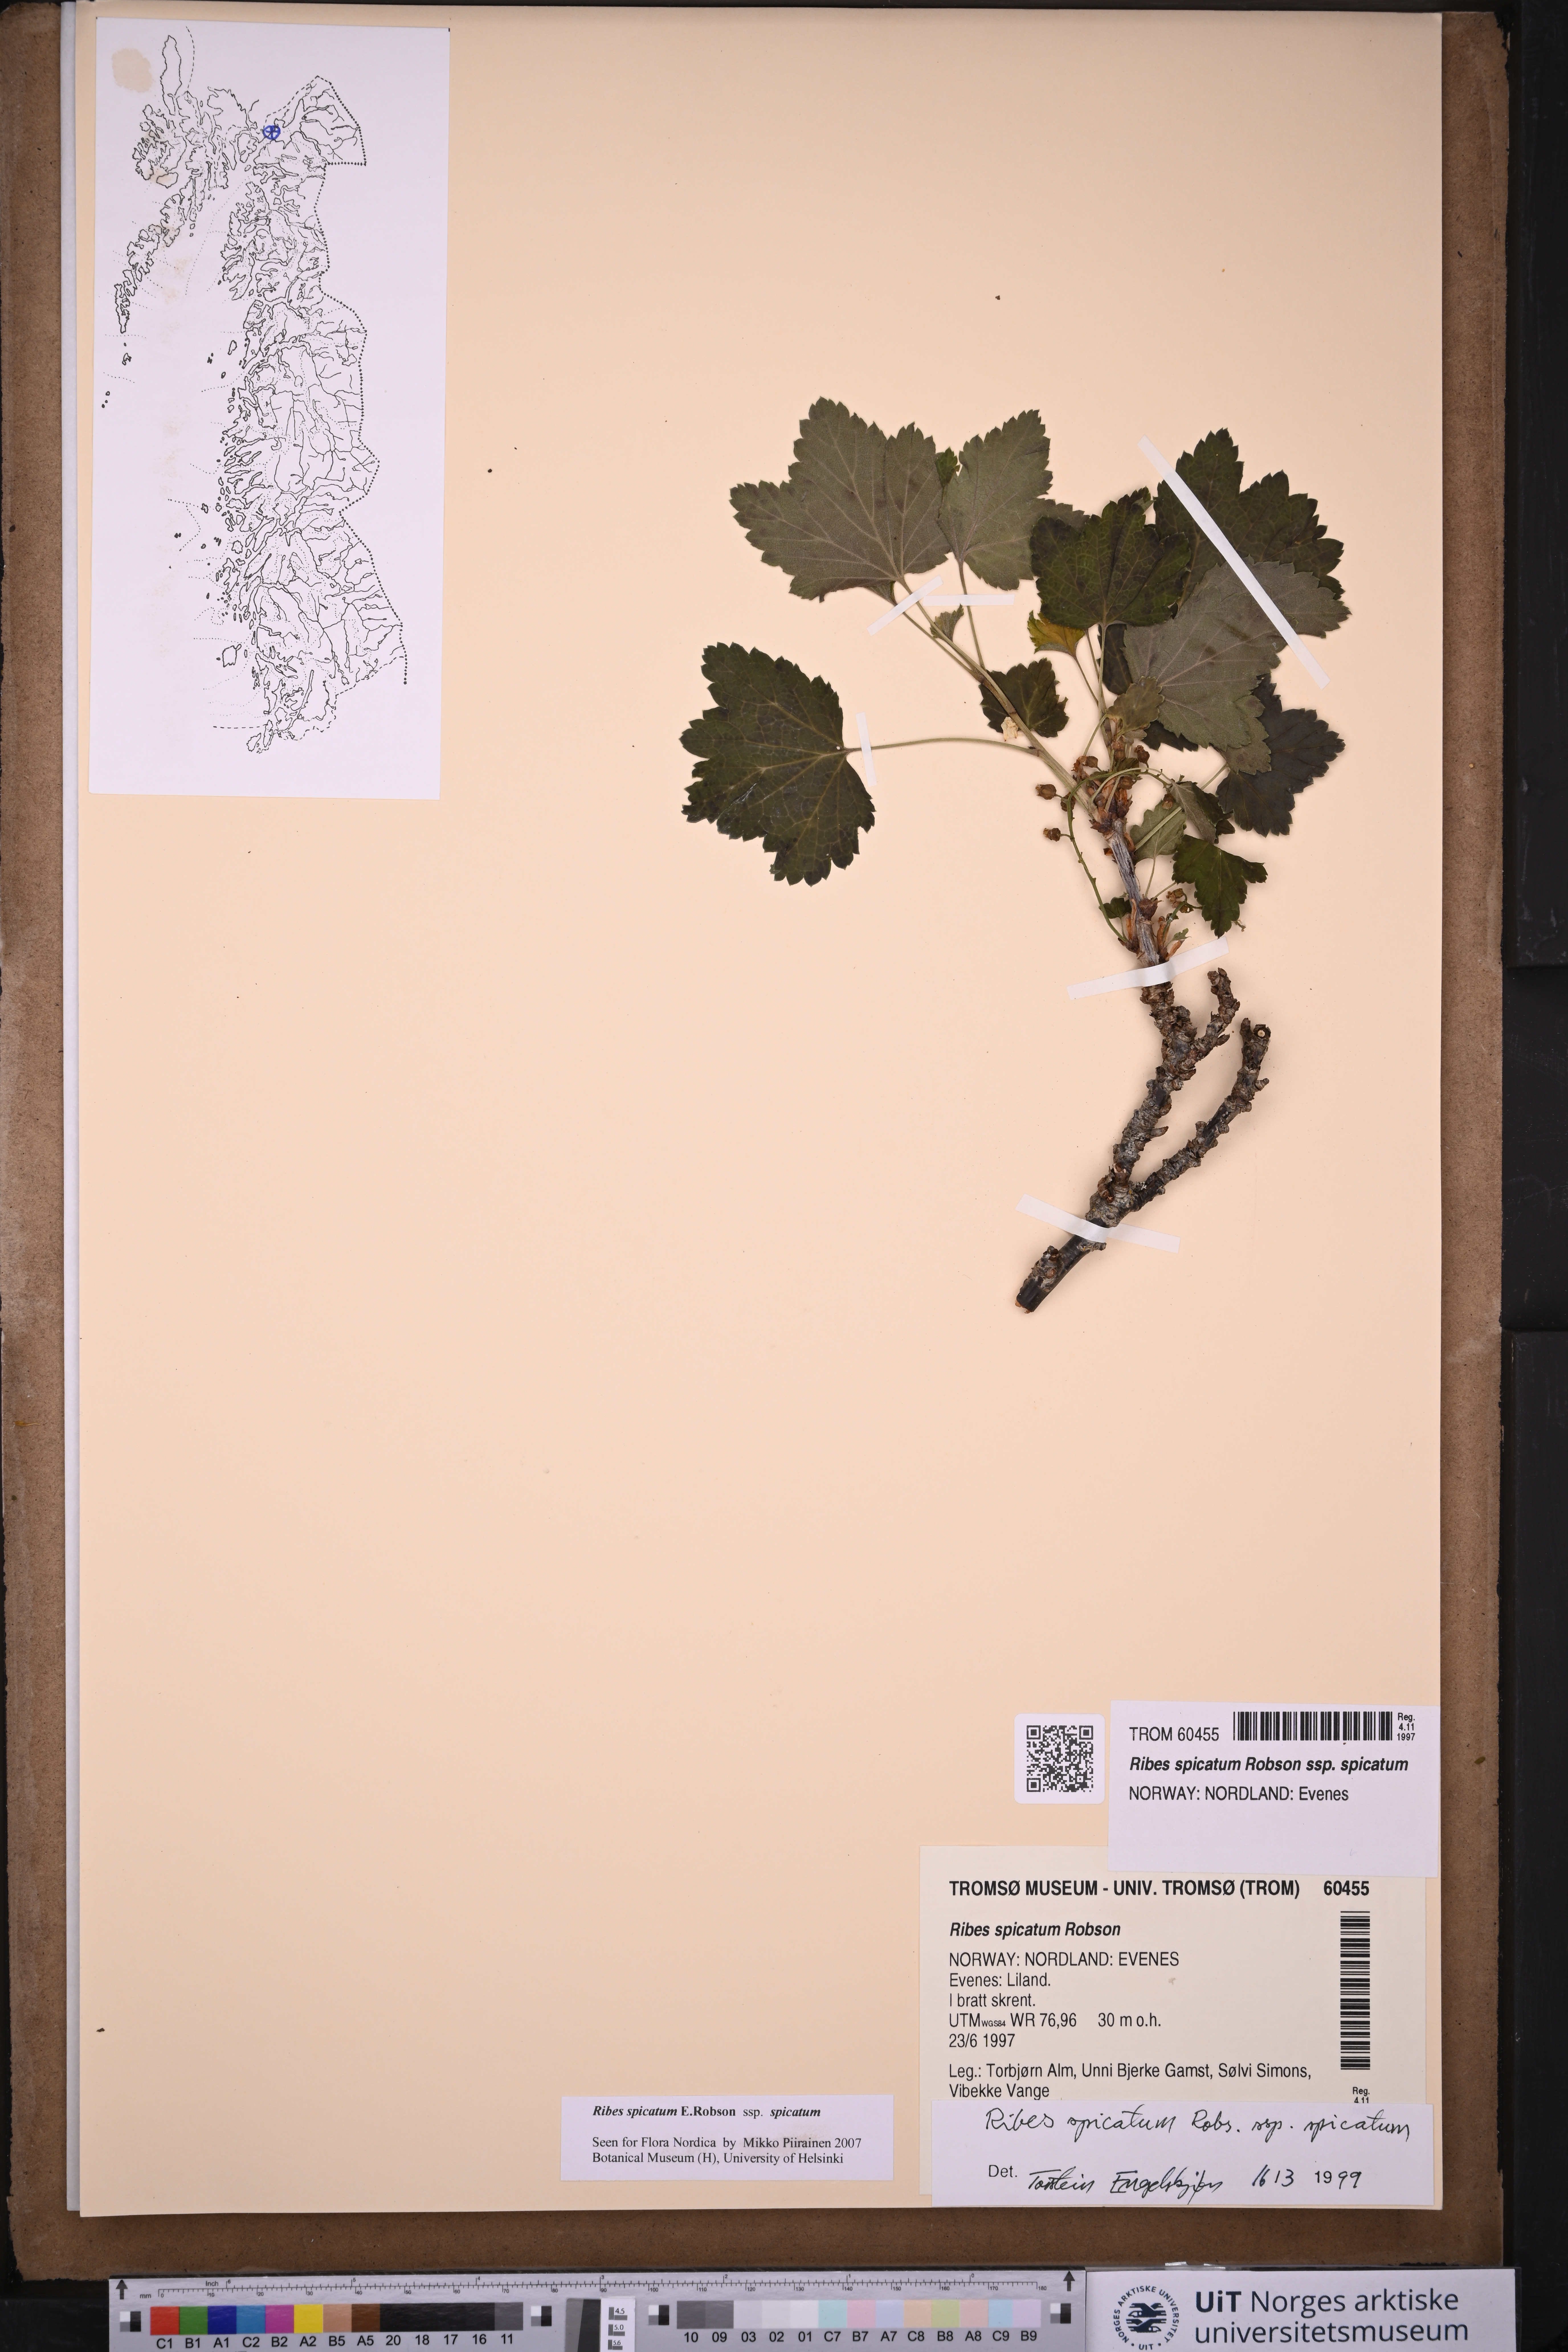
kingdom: Plantae
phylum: Tracheophyta
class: Magnoliopsida
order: Saxifragales
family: Grossulariaceae
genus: Ribes
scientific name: Ribes spicatum
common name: Downy currant
